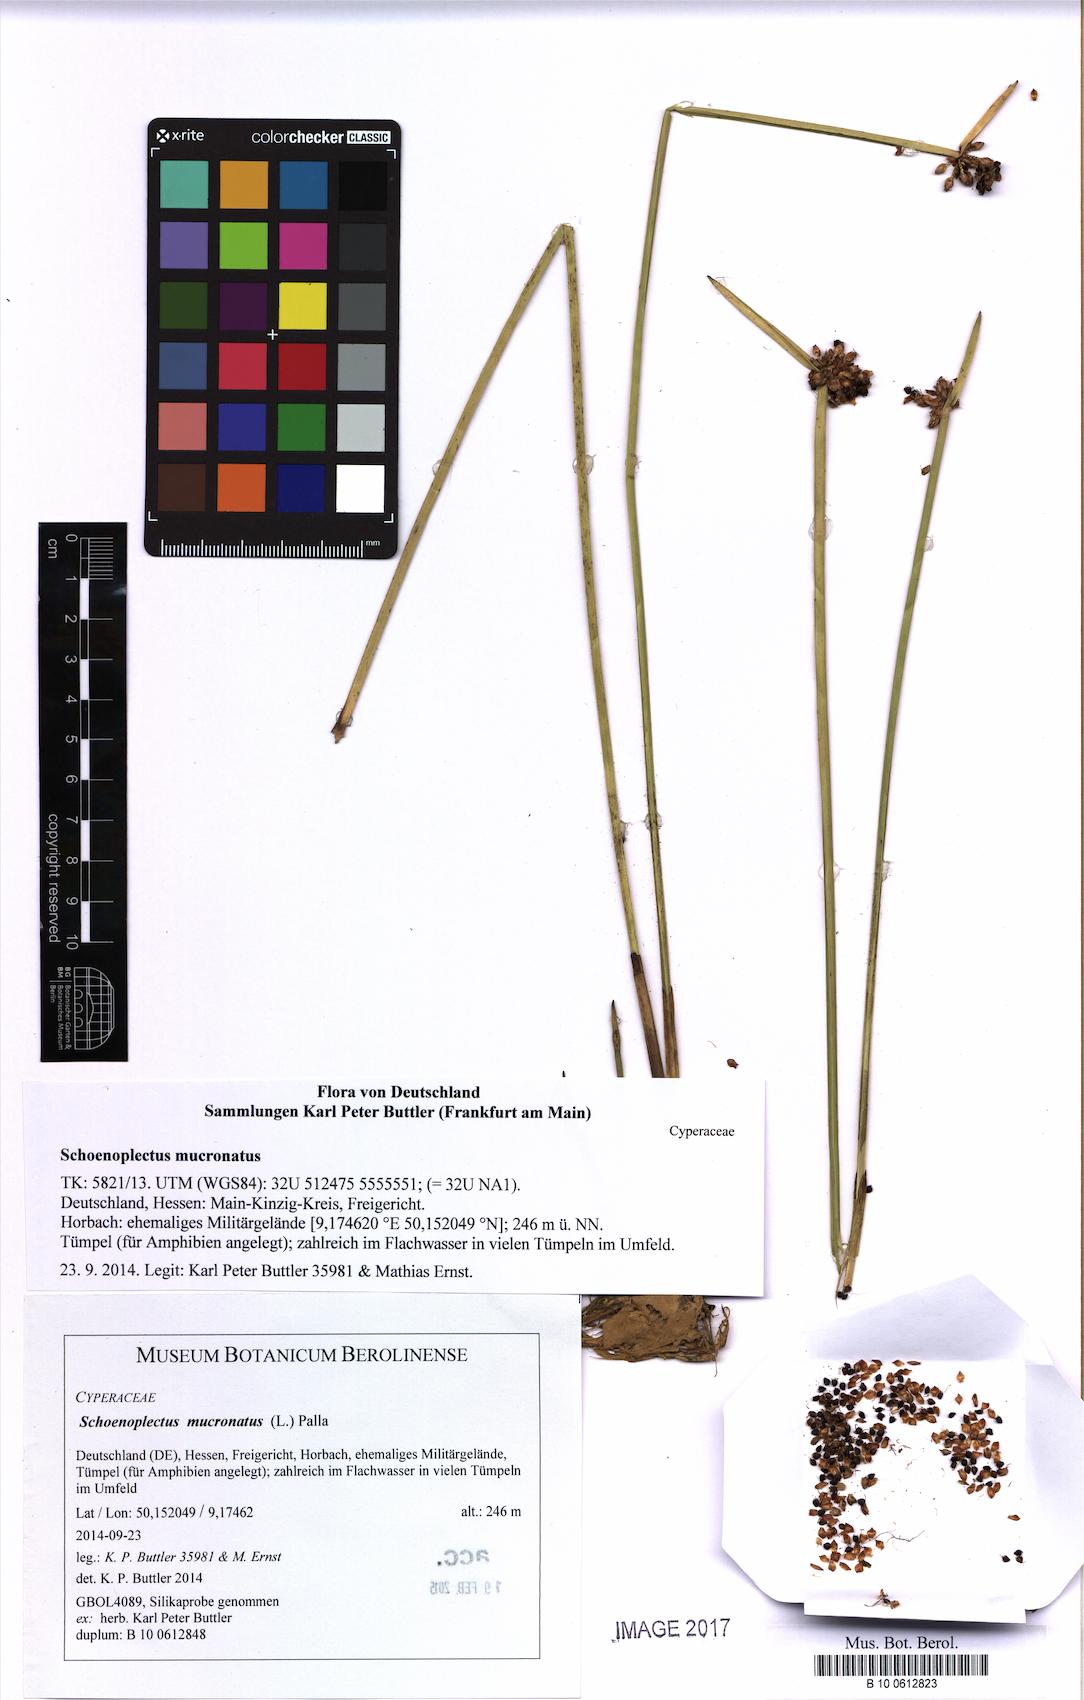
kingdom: Plantae
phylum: Tracheophyta
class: Liliopsida
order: Poales
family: Cyperaceae
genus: Schoenoplectiella
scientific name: Schoenoplectiella mucronata
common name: Bog bulrush
